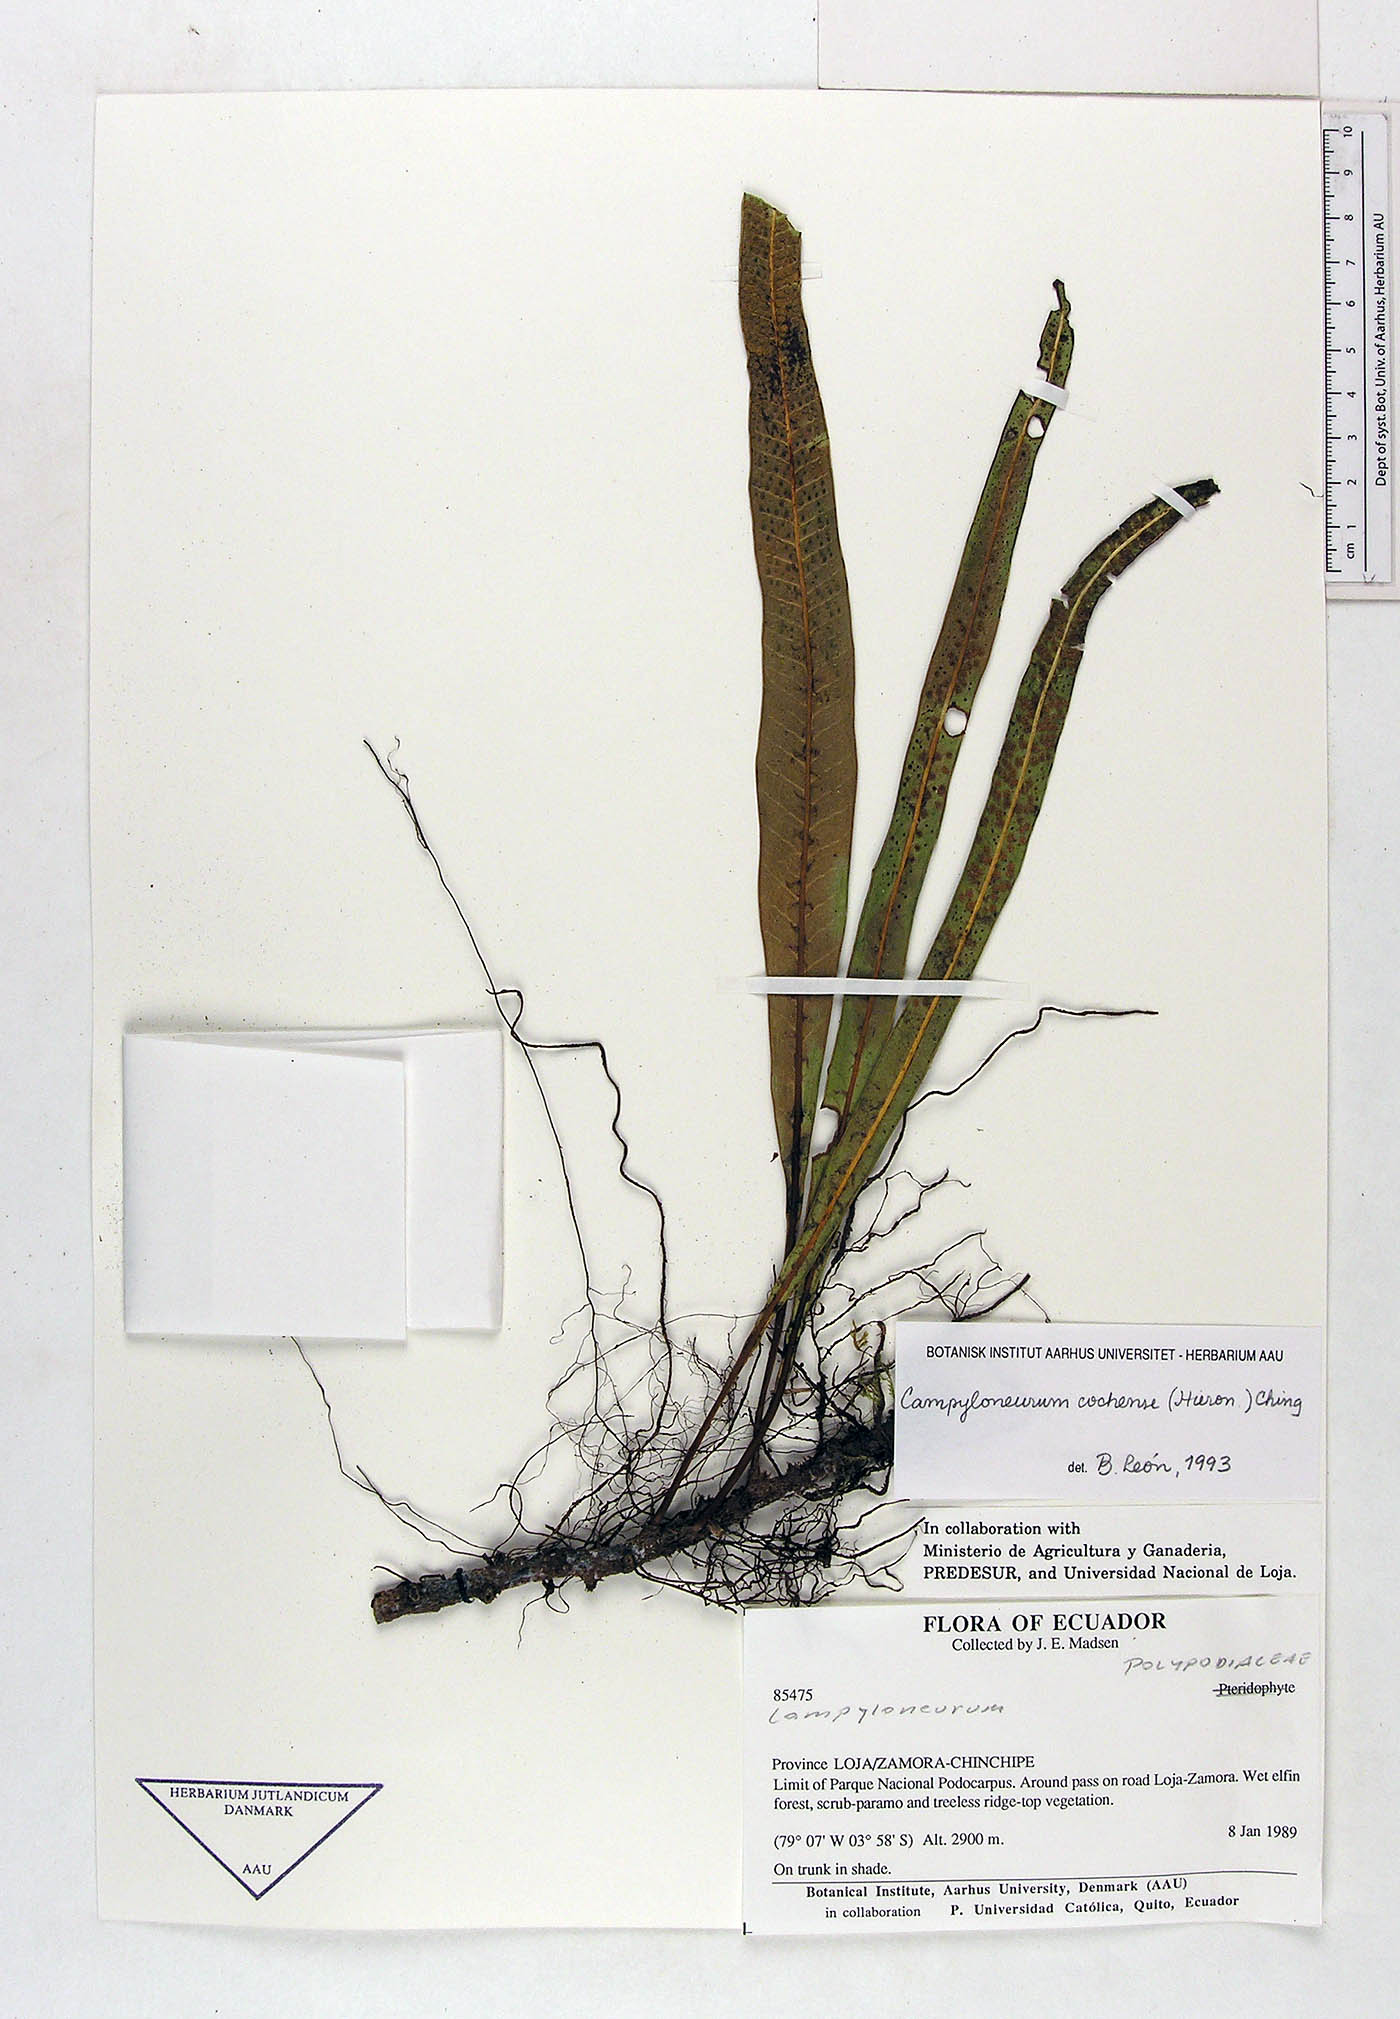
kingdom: Plantae
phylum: Tracheophyta
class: Polypodiopsida
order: Polypodiales
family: Polypodiaceae
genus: Campyloneurum
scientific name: Campyloneurum cochense
